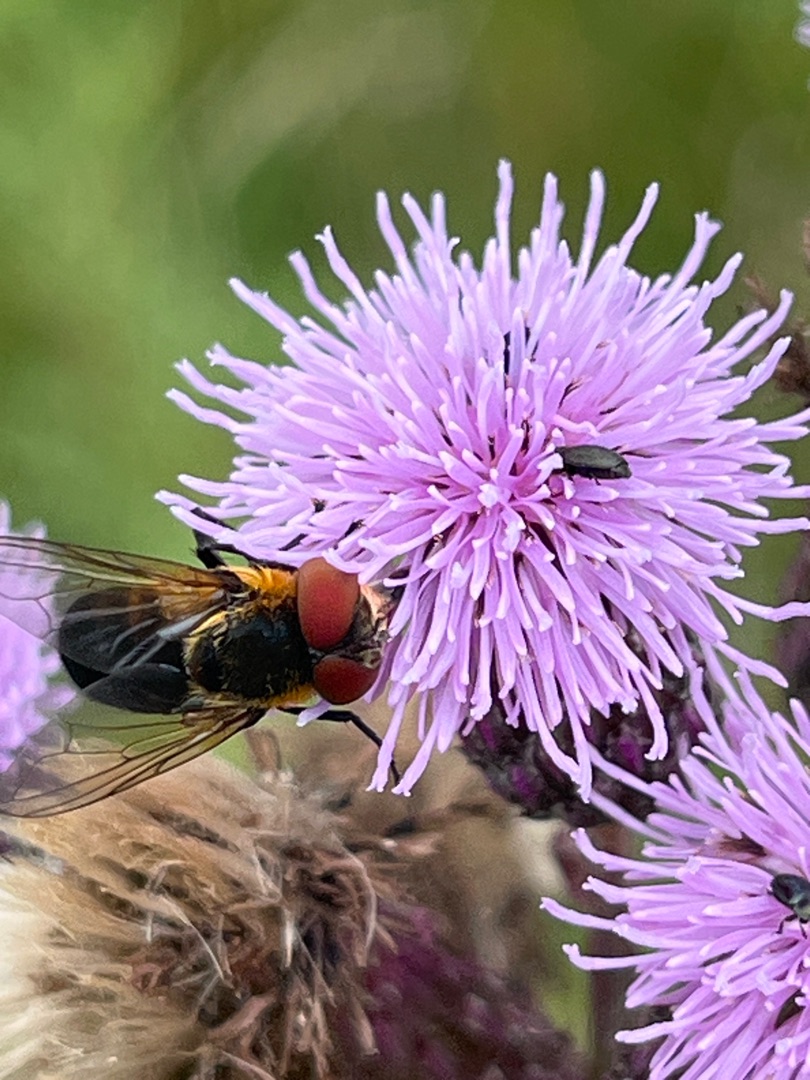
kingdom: Animalia
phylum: Arthropoda
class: Insecta
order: Diptera
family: Tachinidae
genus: Phasia
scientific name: Phasia hemiptera
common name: Blåvinget pragtsnylteflue
